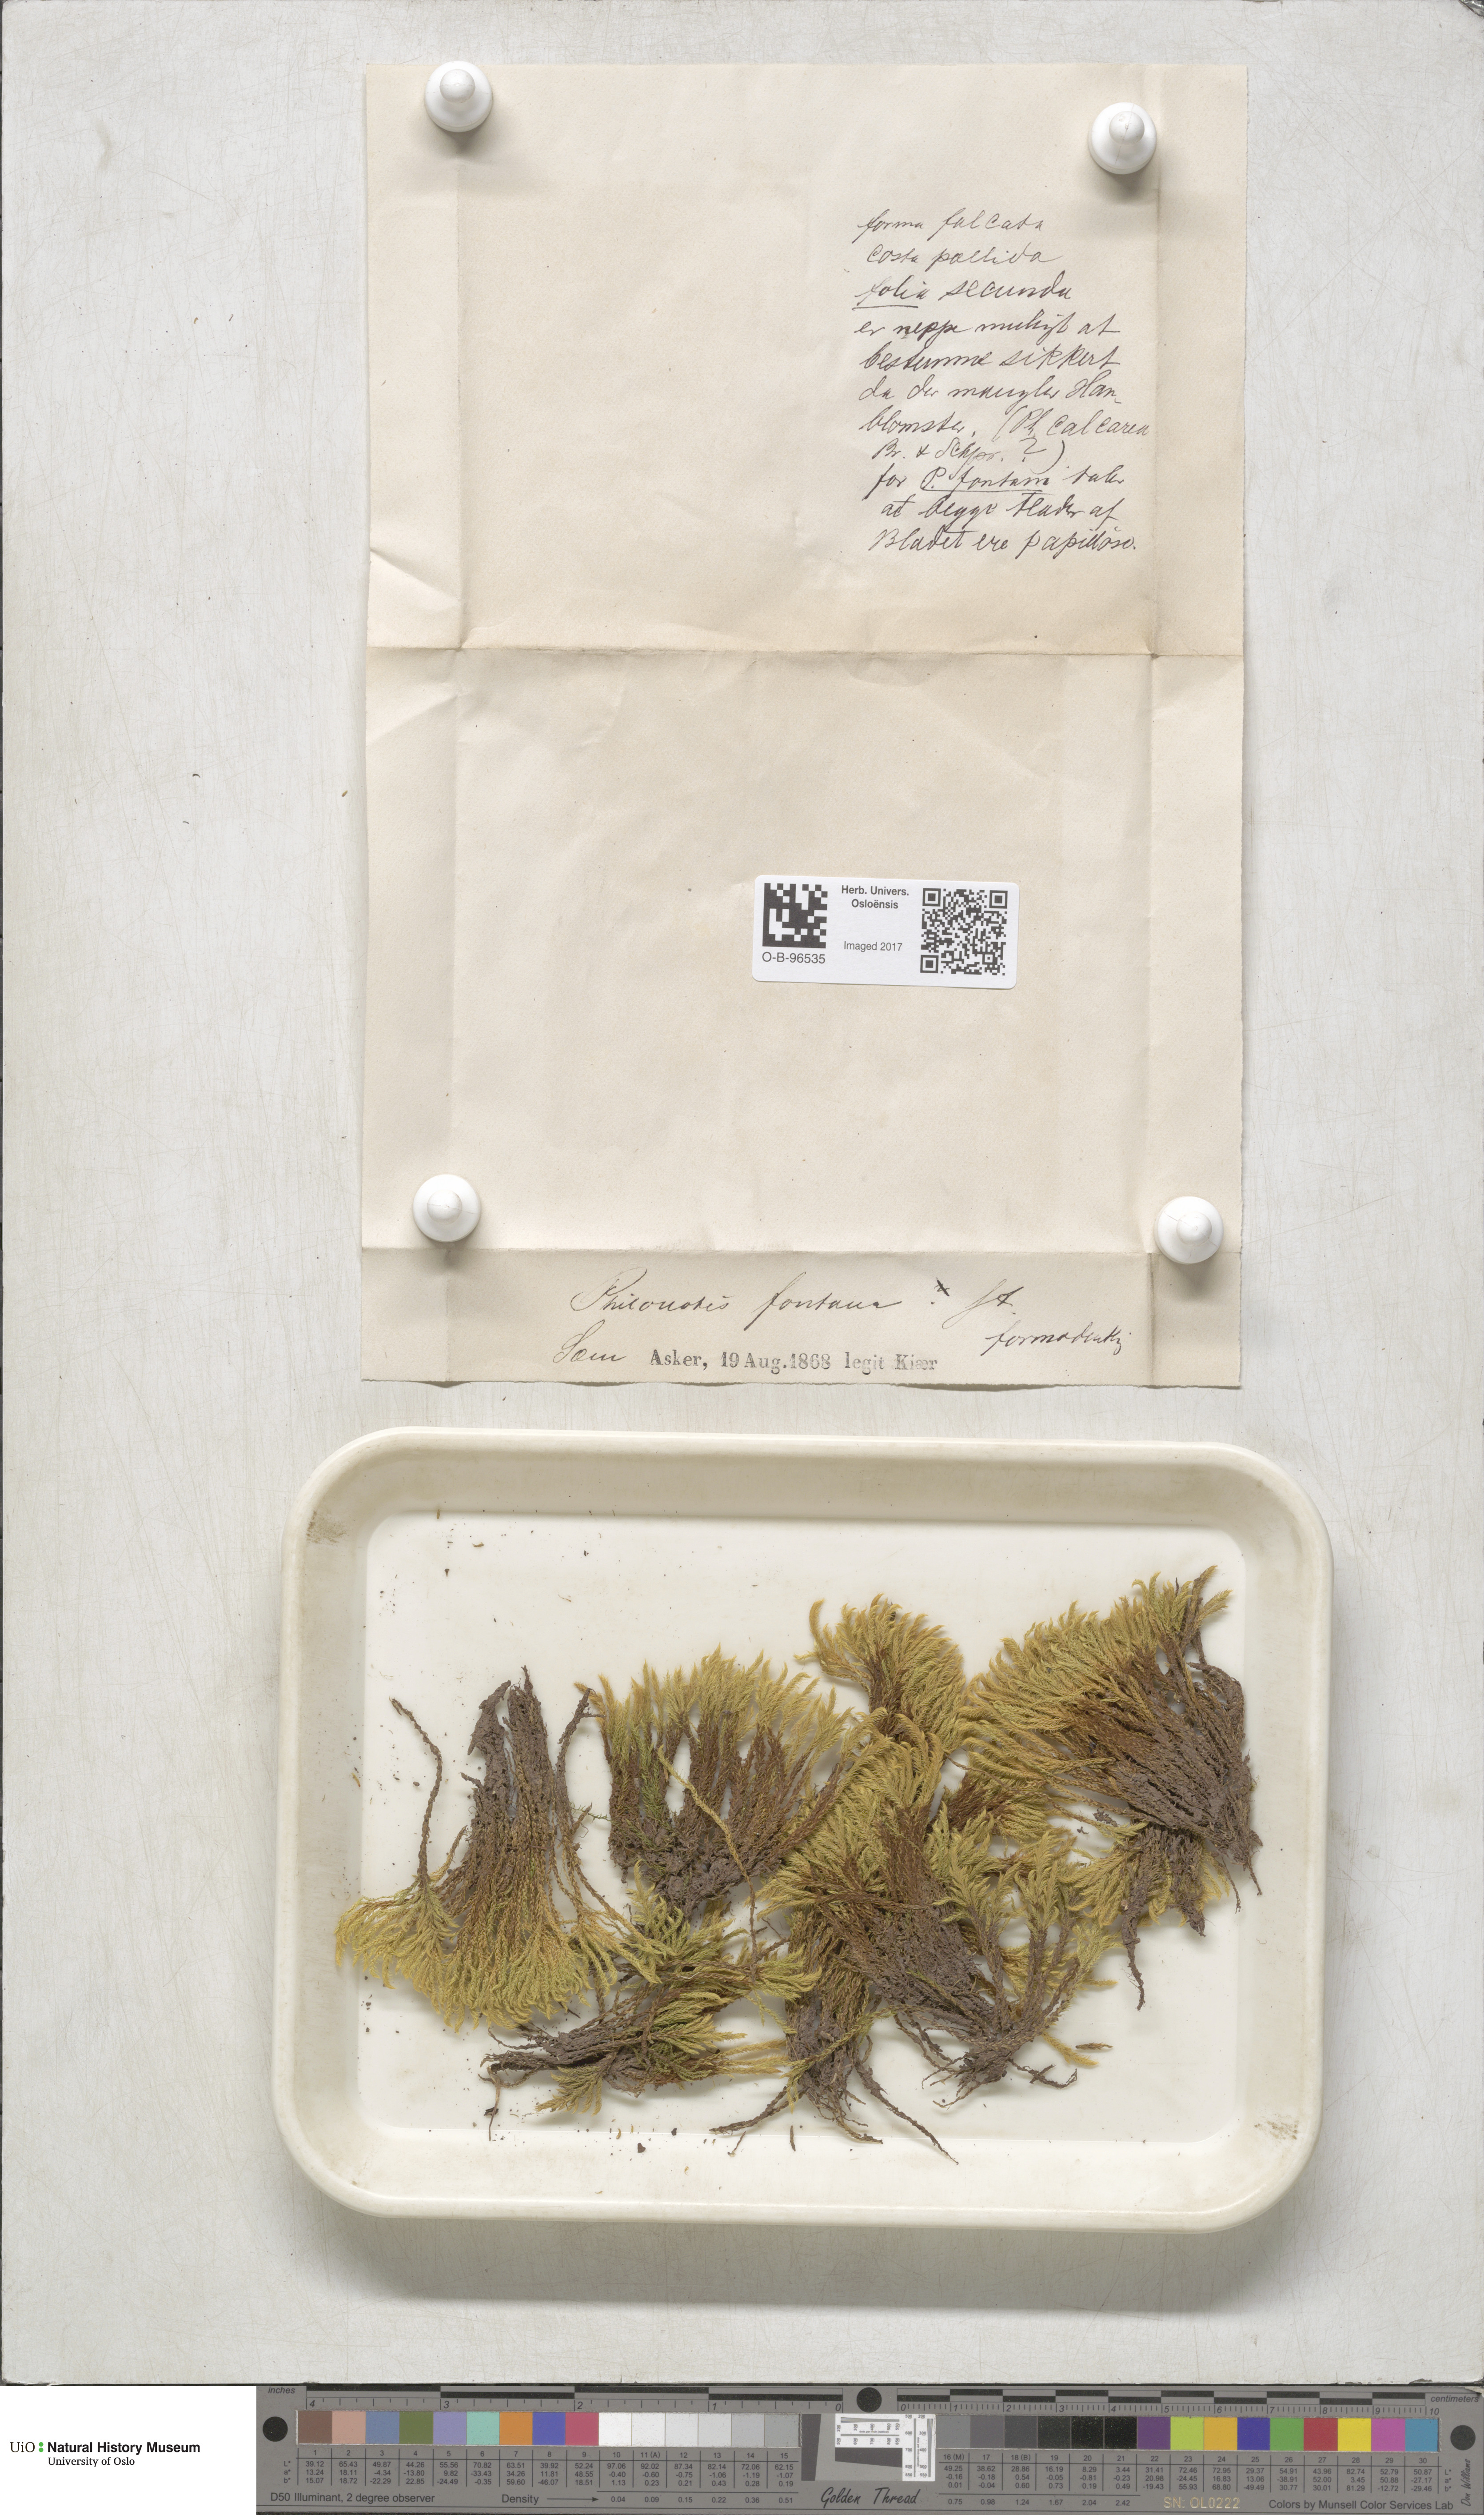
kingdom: Plantae
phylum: Bryophyta
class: Bryopsida
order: Bartramiales
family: Bartramiaceae
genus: Philonotis
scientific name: Philonotis fontana
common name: Fountain apple-moss
